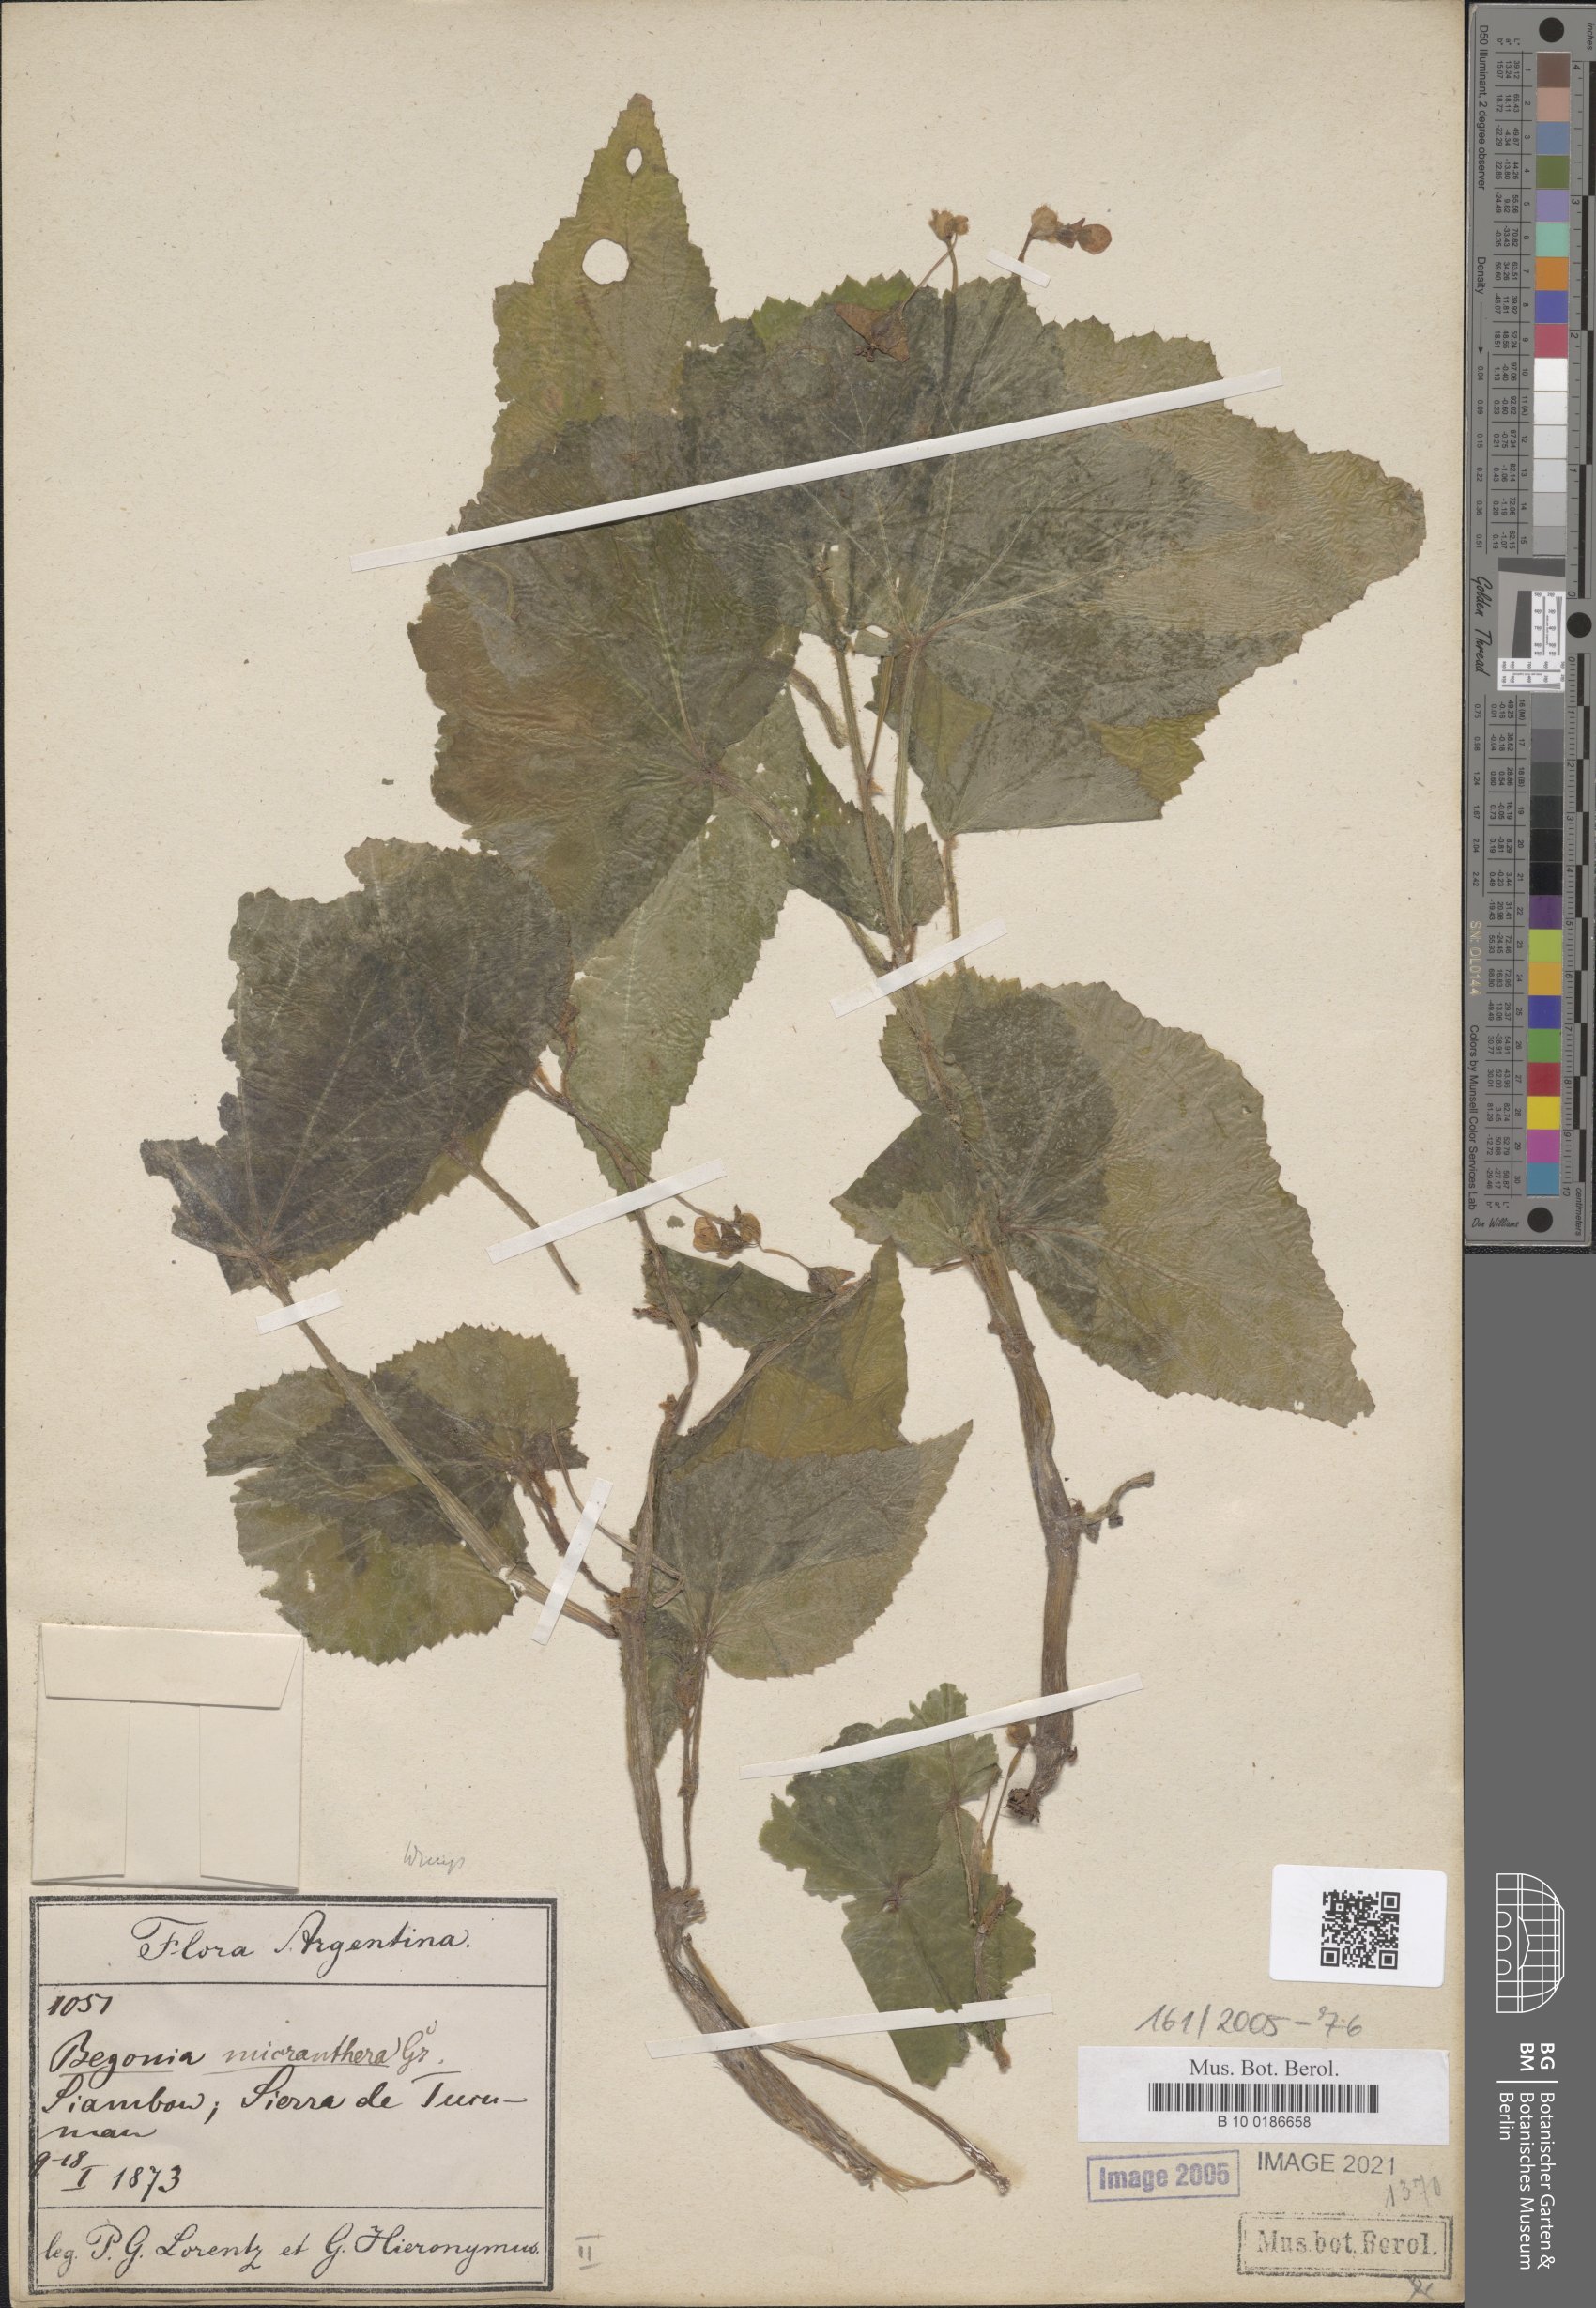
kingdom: Plantae
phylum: Tracheophyta
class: Magnoliopsida
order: Cucurbitales
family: Begoniaceae
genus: Begonia
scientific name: Begonia micranthera
